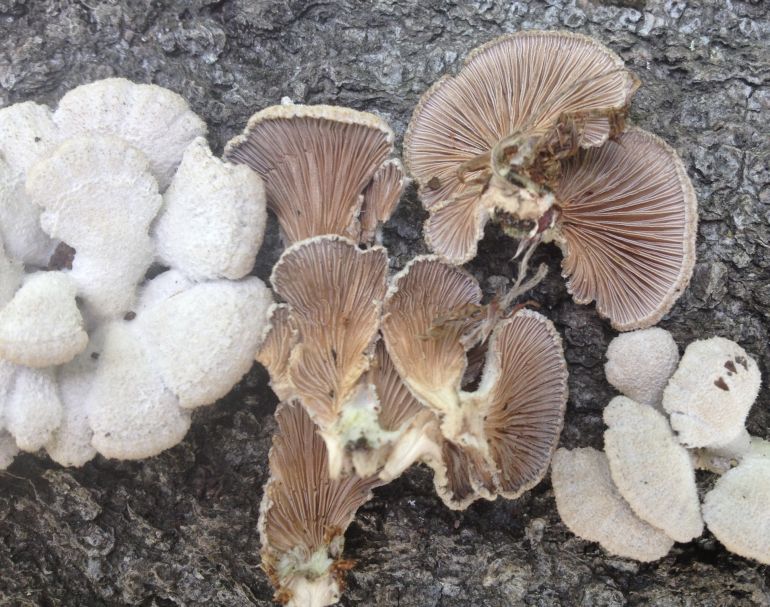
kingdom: Fungi
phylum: Basidiomycota
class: Agaricomycetes
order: Agaricales
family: Schizophyllaceae
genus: Schizophyllum
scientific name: Schizophyllum commune
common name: kløvblad
